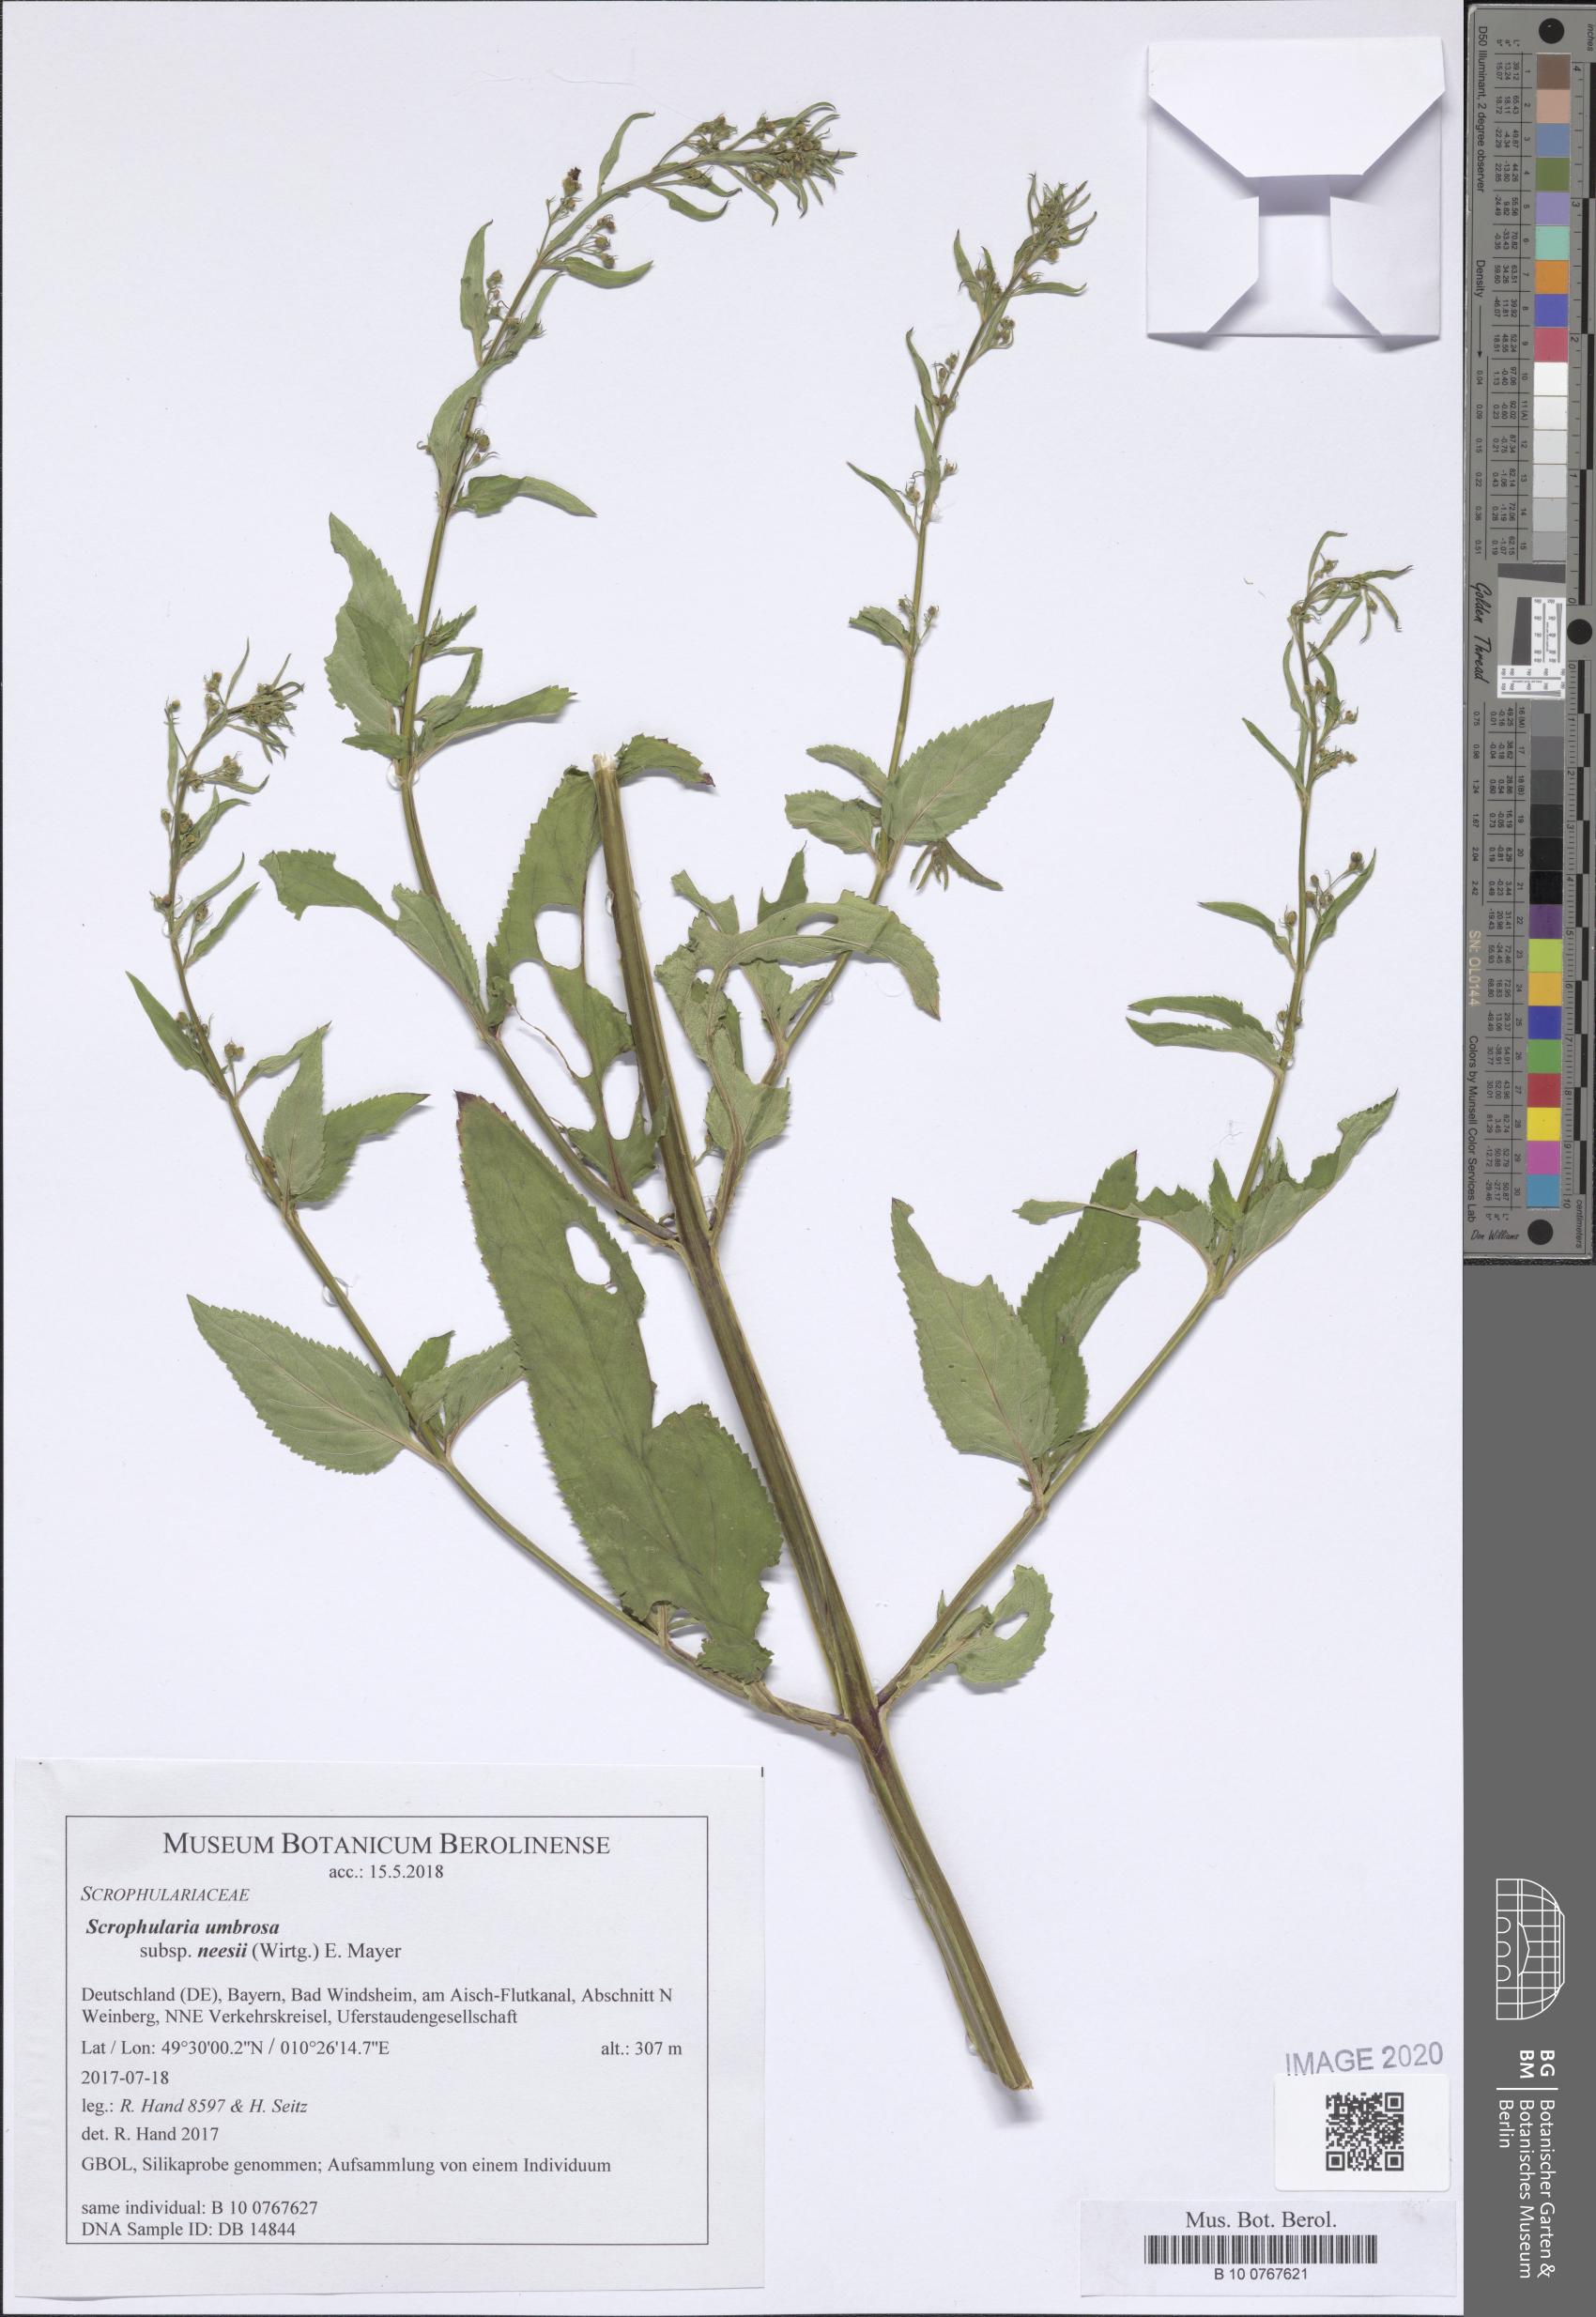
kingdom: Plantae
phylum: Tracheophyta
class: Magnoliopsida
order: Lamiales
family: Scrophulariaceae
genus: Scrophularia
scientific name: Scrophularia neesii
